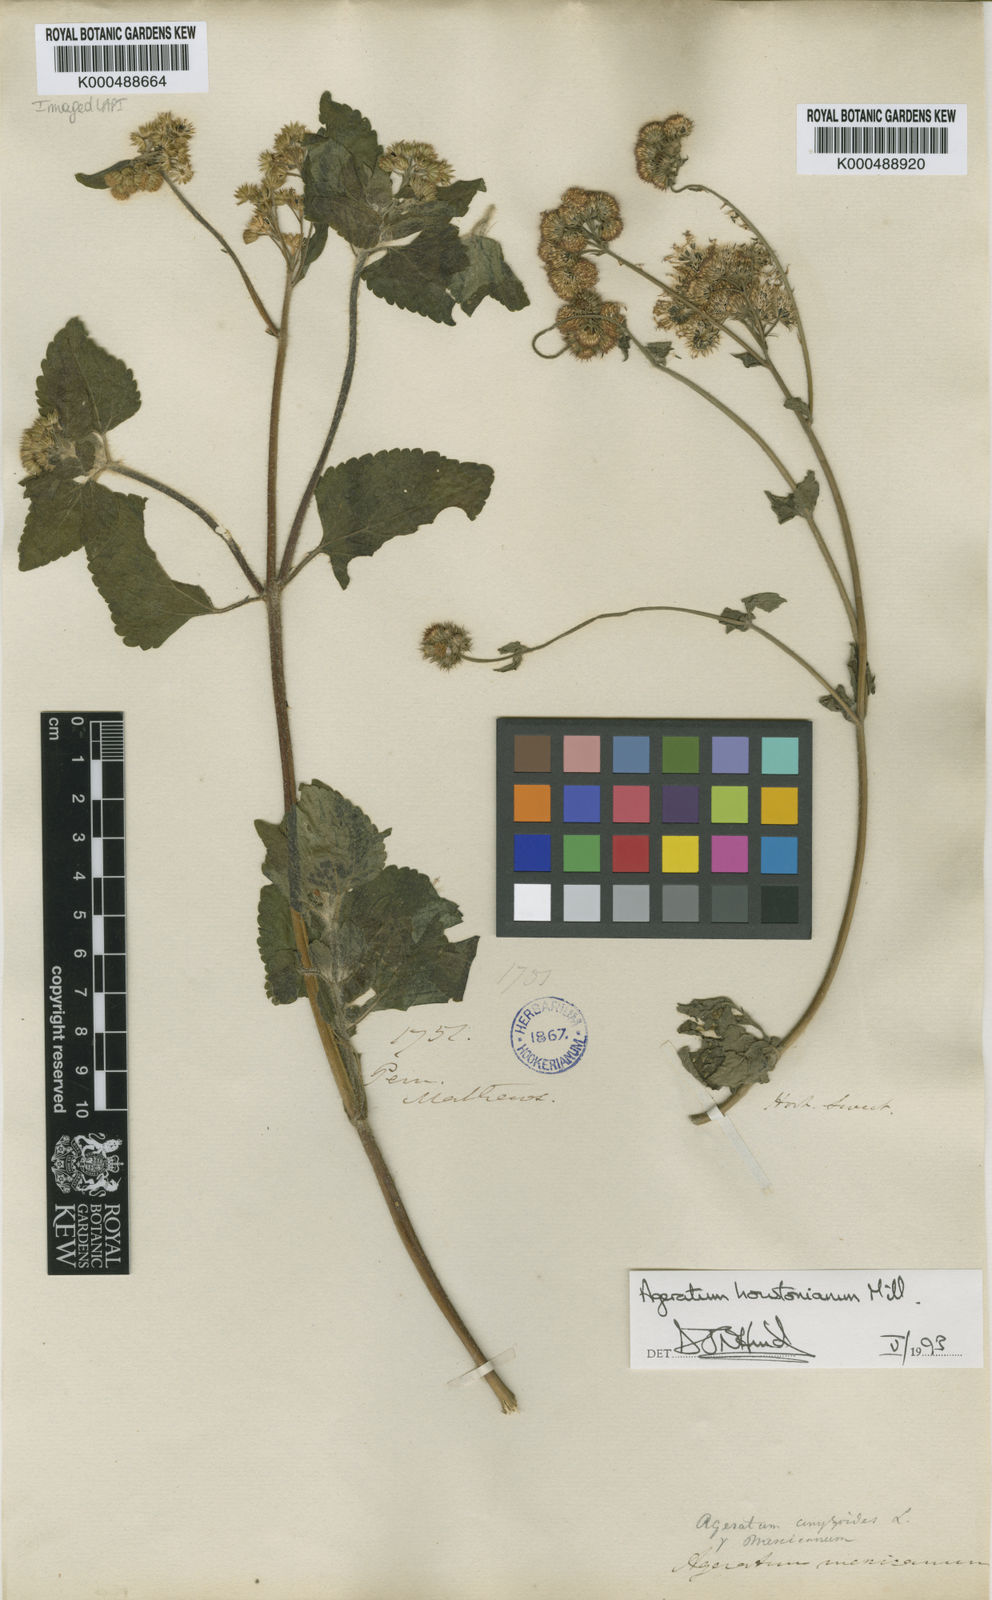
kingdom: Plantae
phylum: Tracheophyta
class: Magnoliopsida
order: Asterales
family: Asteraceae
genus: Ageratum
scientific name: Ageratum houstonianum
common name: Bluemink
